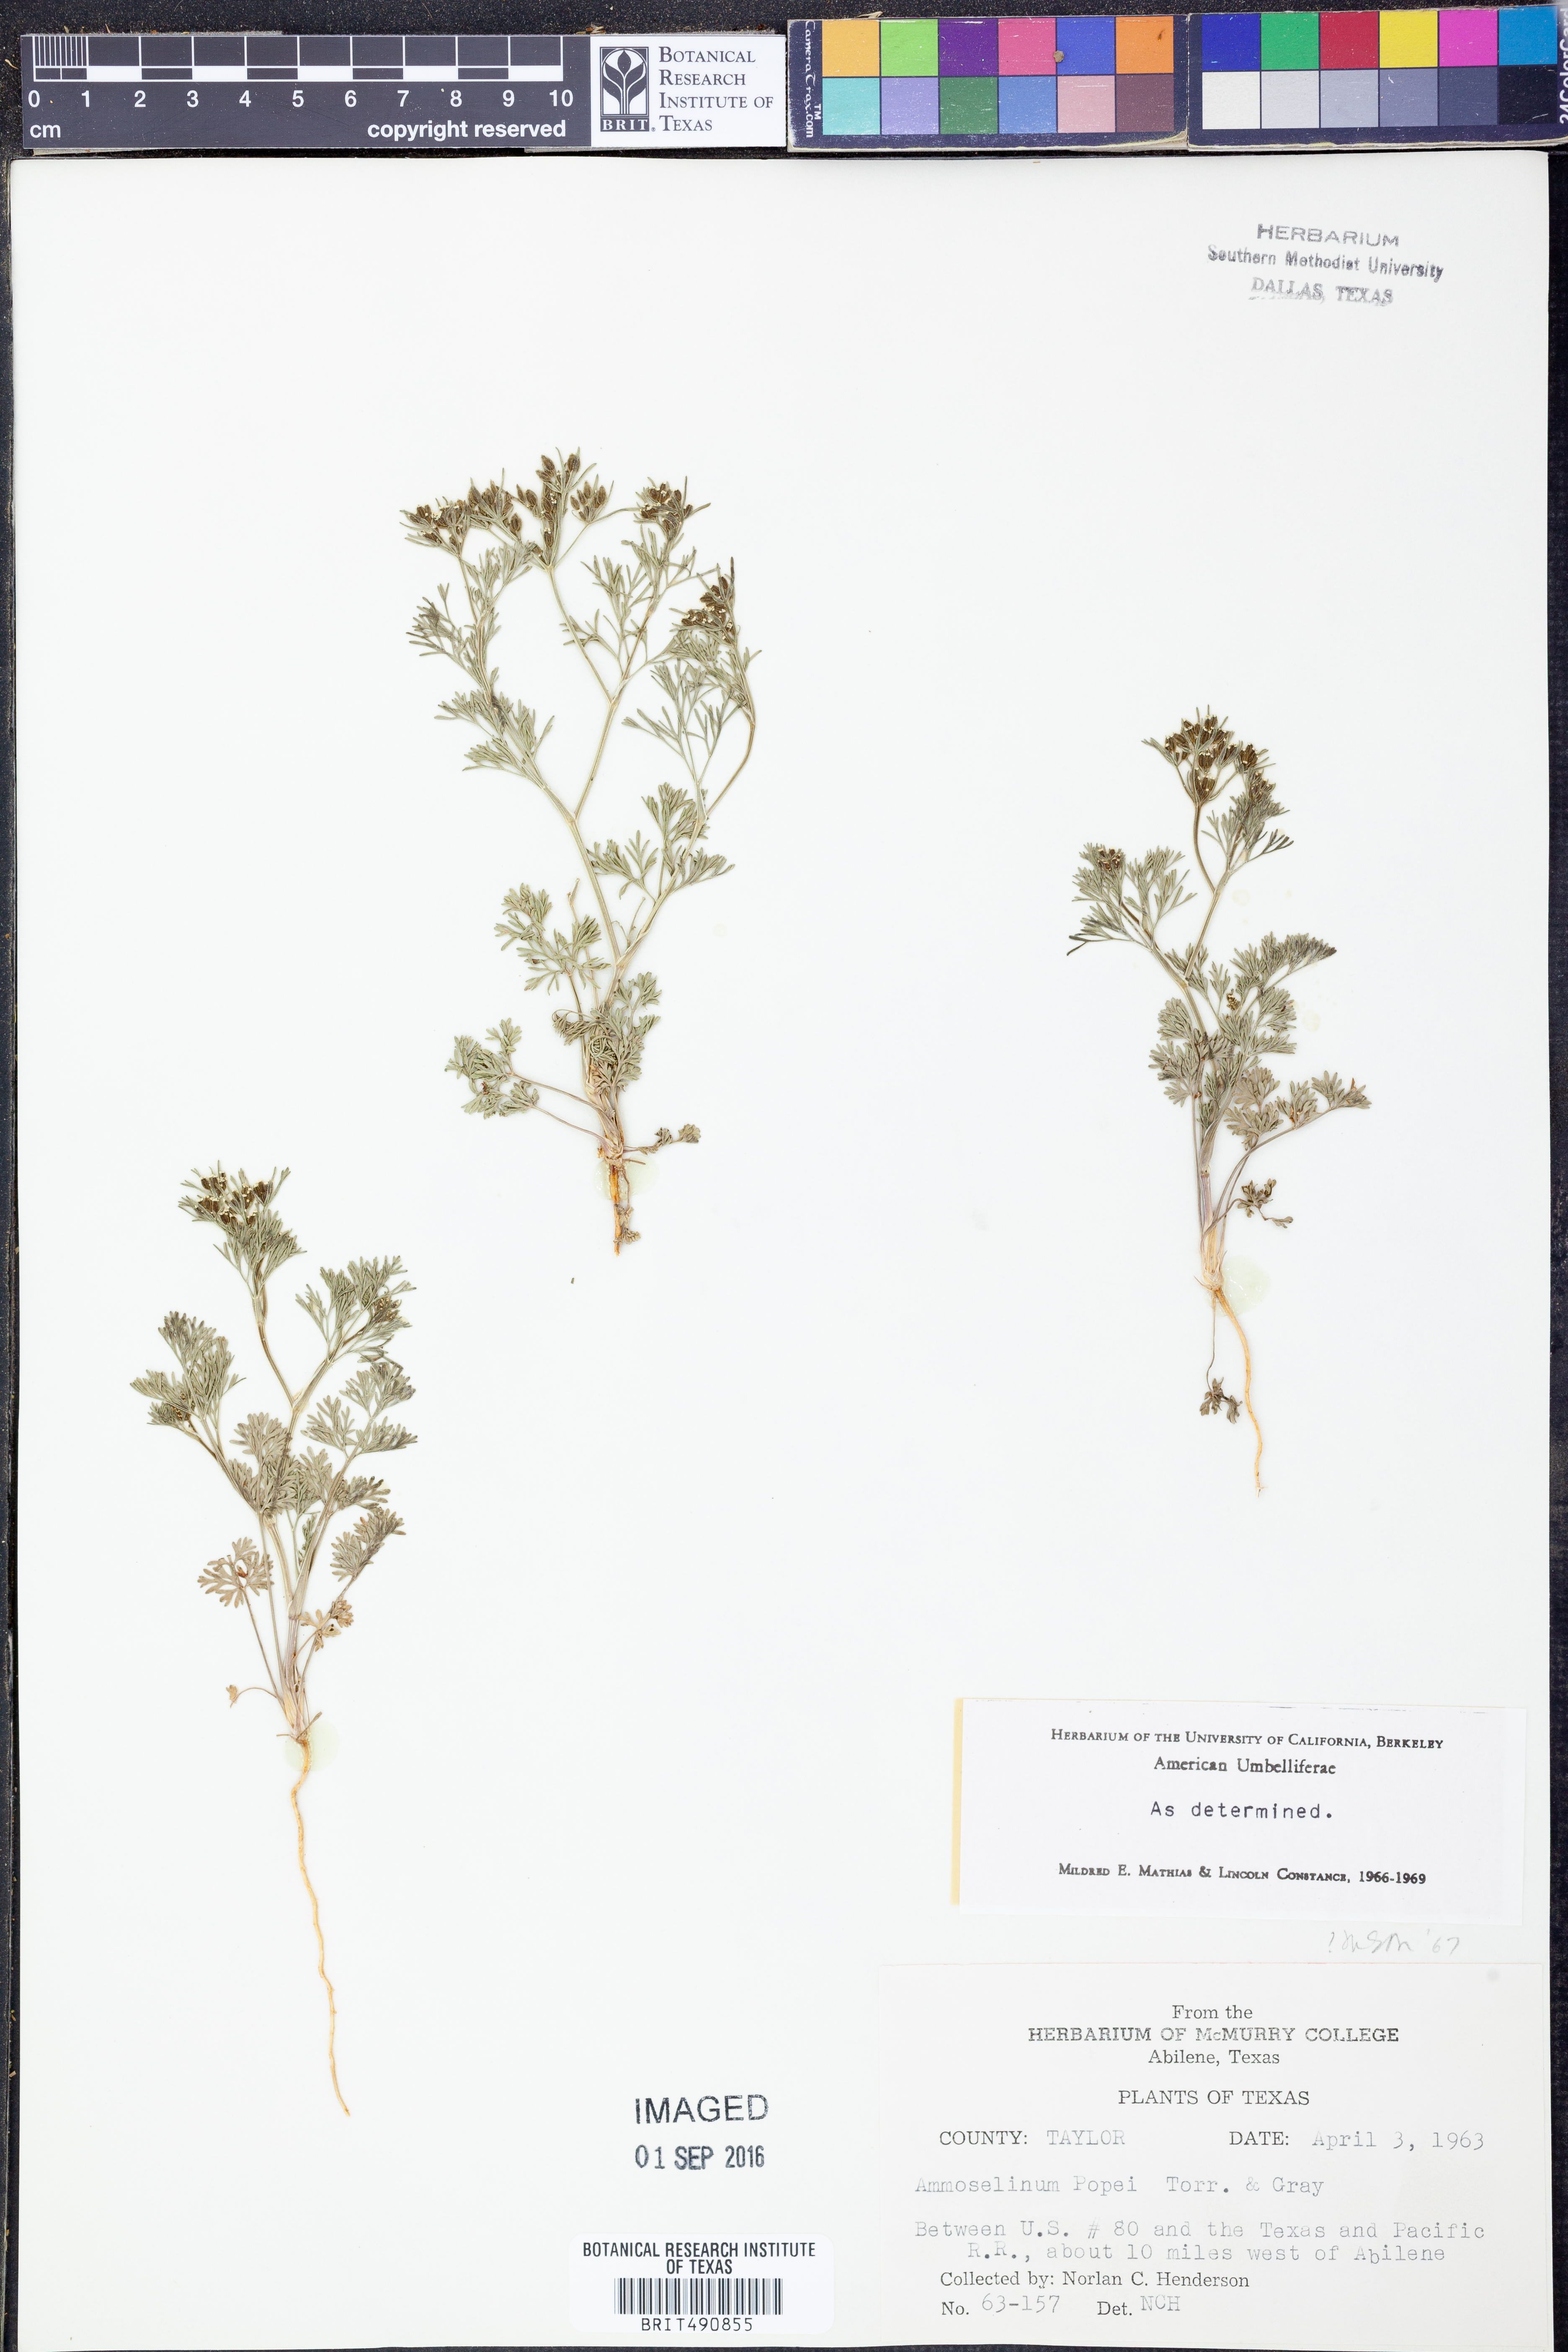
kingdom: Plantae
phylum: Tracheophyta
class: Magnoliopsida
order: Apiales
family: Apiaceae
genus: Ammoselinum
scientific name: Ammoselinum popei
